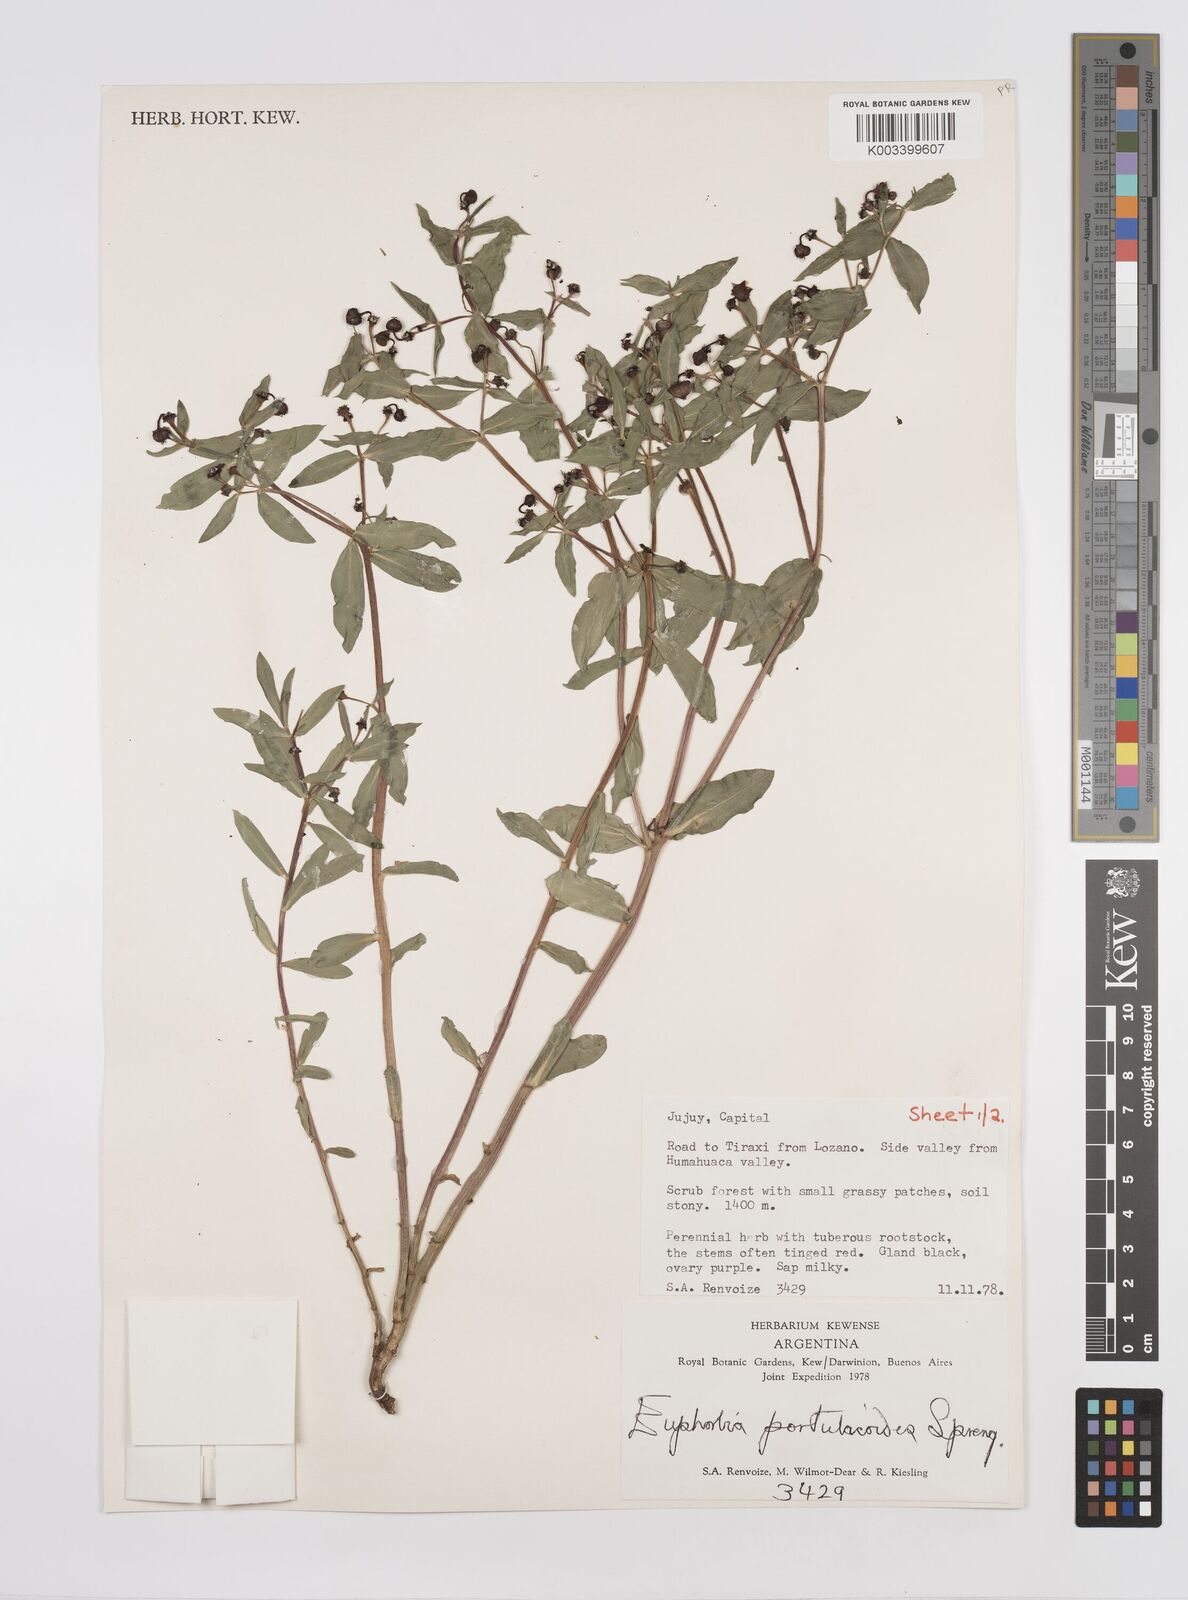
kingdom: Plantae
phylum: Tracheophyta
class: Magnoliopsida
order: Malpighiales
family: Euphorbiaceae
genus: Euphorbia
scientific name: Euphorbia portulacoides
